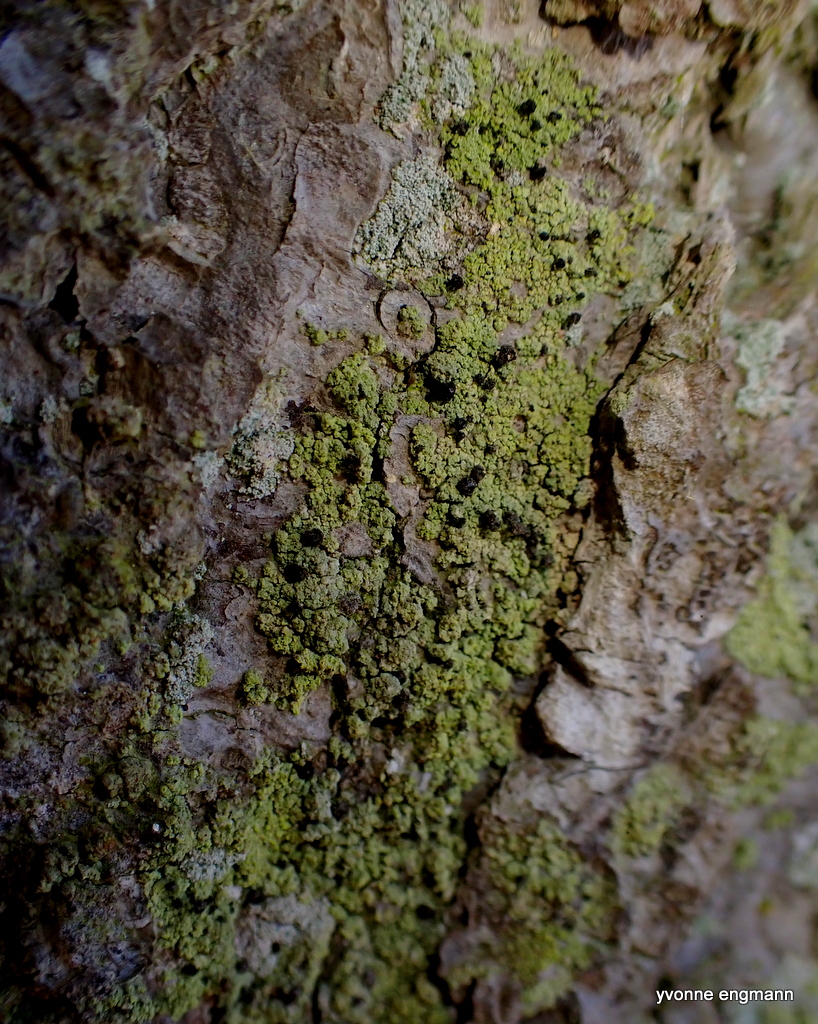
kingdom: Fungi
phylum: Ascomycota
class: Lecanoromycetes
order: Caliciales
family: Caliciaceae
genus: Calicium
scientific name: Calicium viride
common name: gulgrøn nålelav
